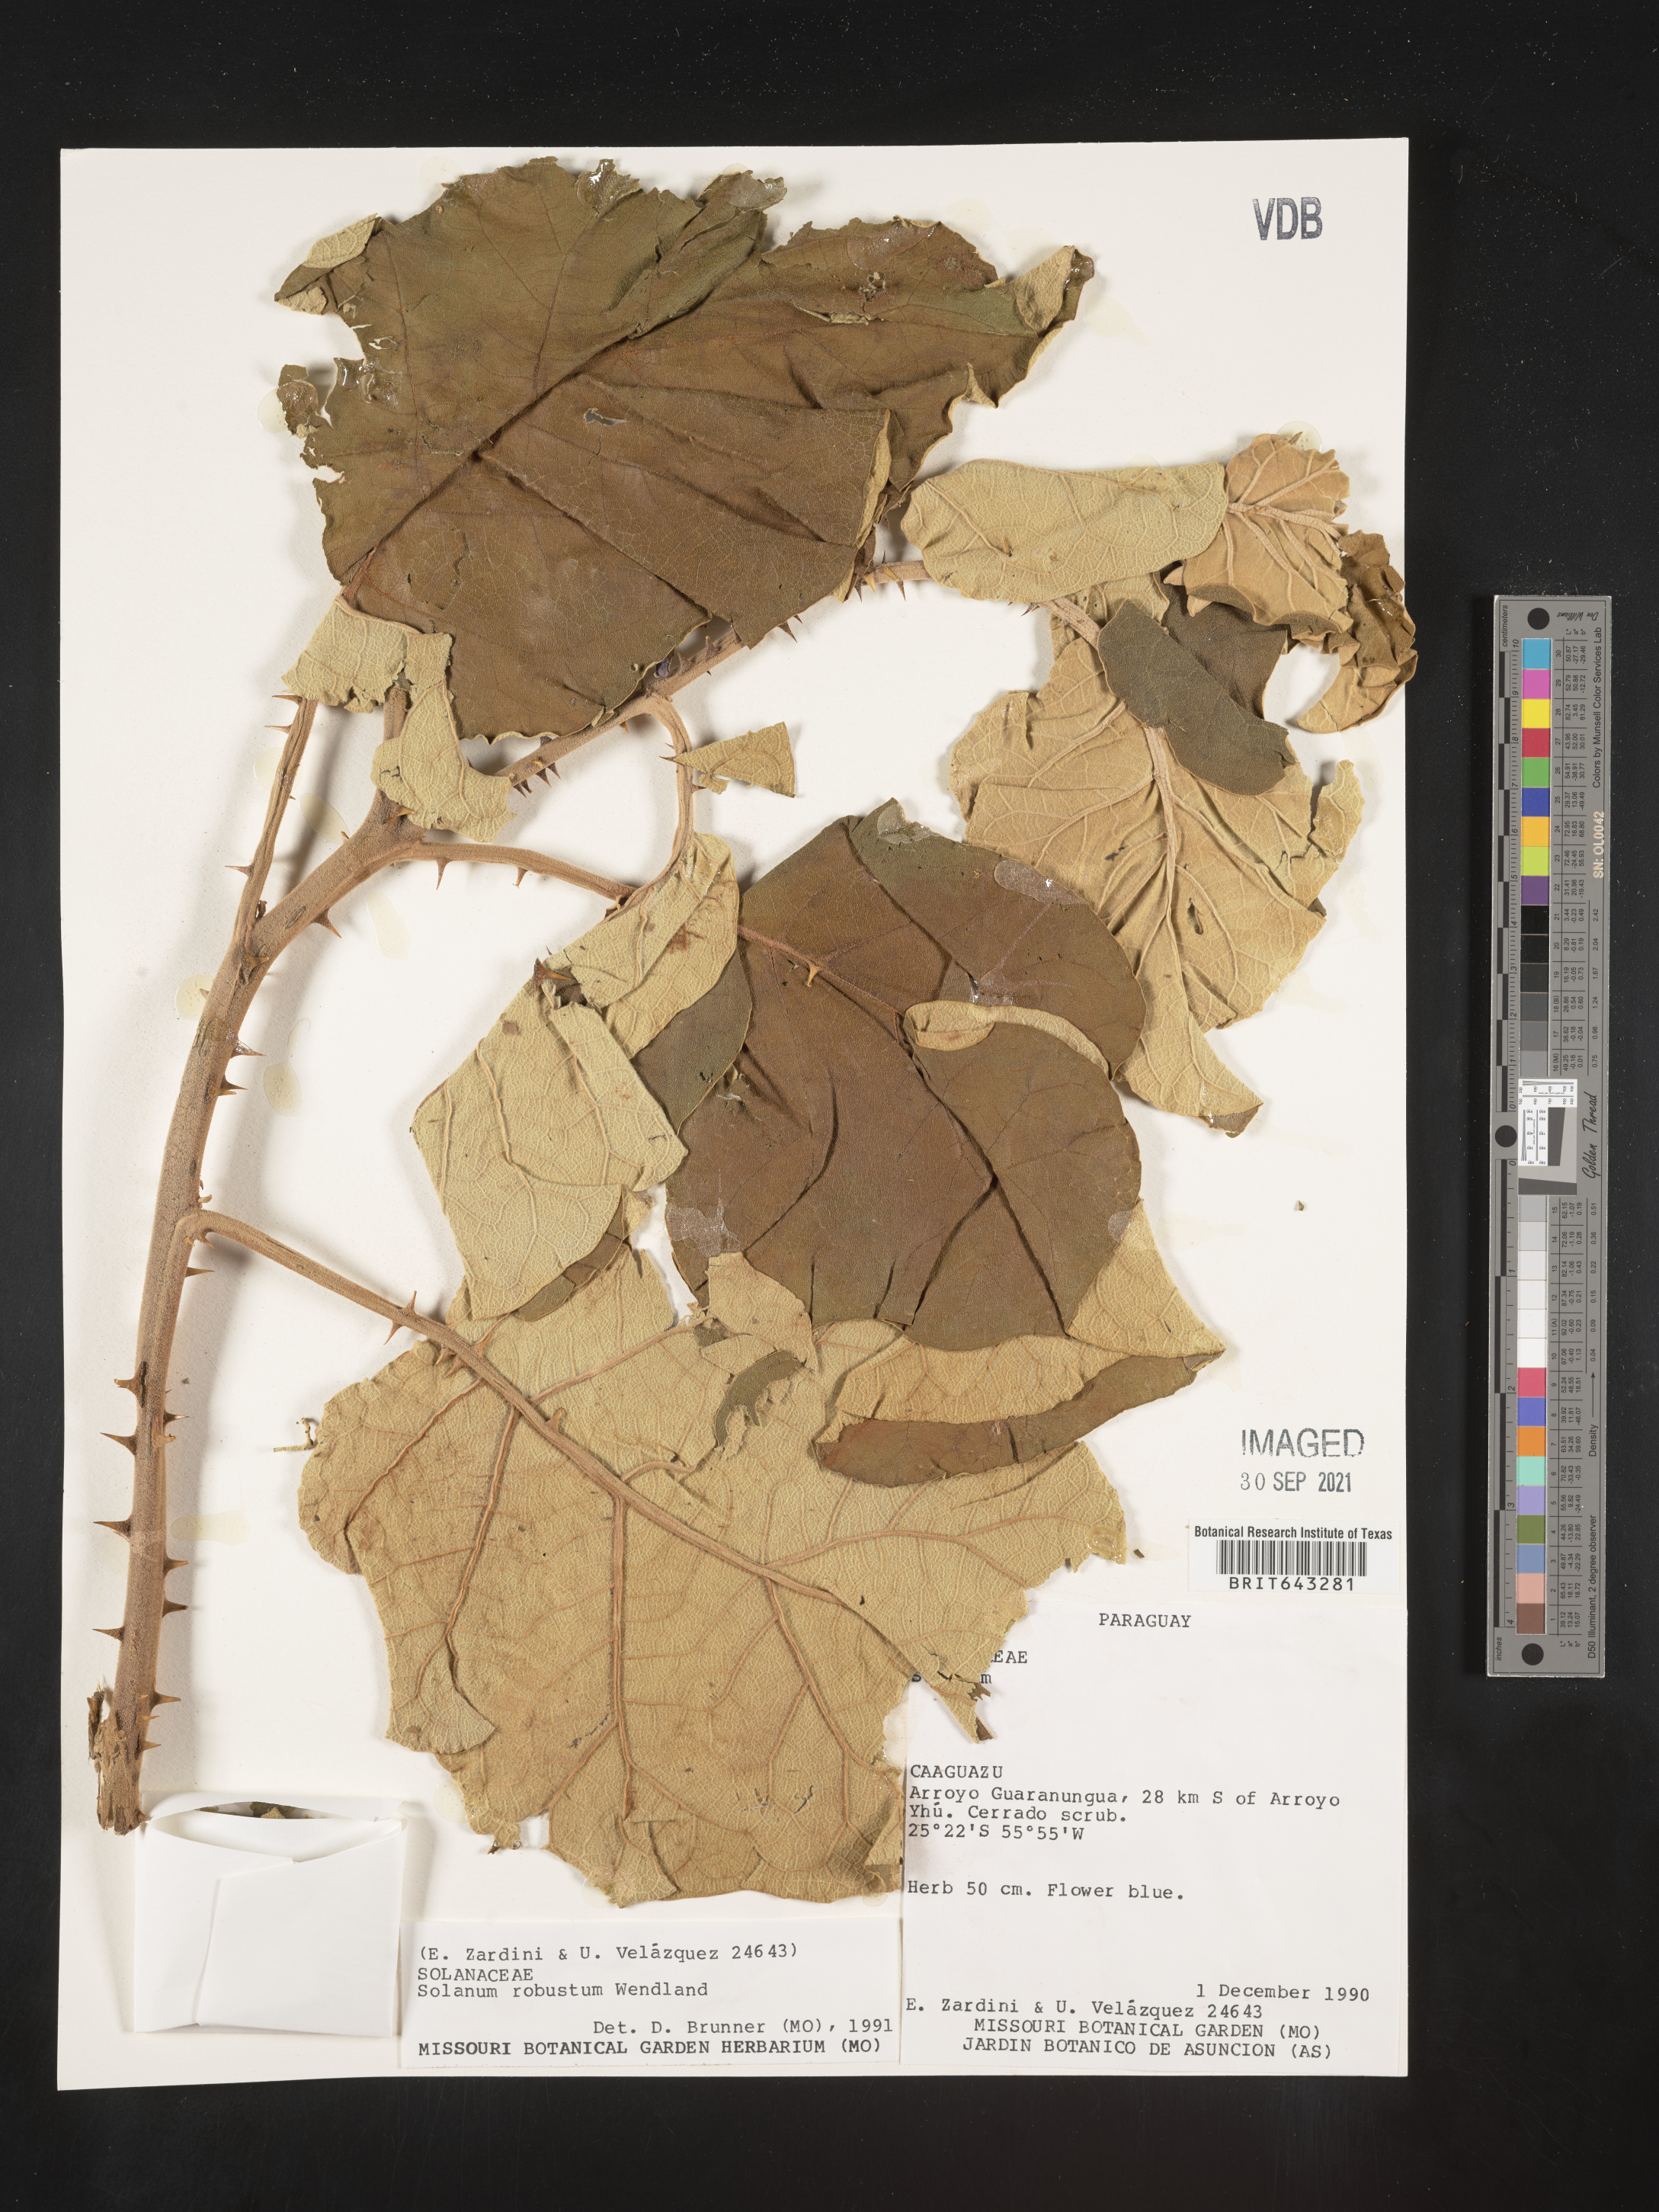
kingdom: Plantae
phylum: Tracheophyta
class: Magnoliopsida
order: Solanales
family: Solanaceae
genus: Solanum
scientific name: Solanum
